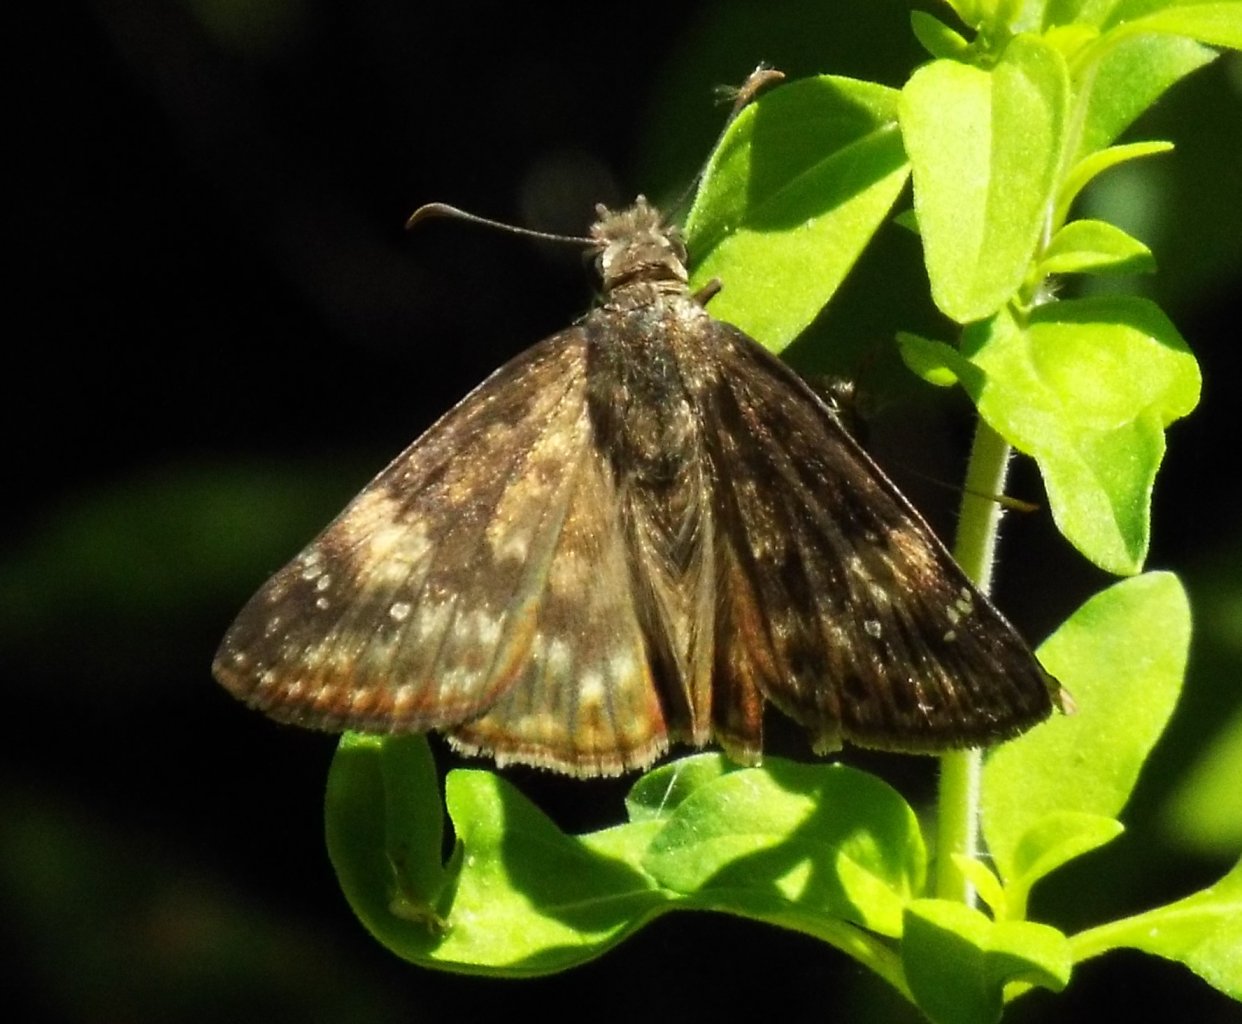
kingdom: Animalia
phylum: Arthropoda
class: Insecta
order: Lepidoptera
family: Hesperiidae
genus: Erynnis
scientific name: Erynnis zarucco
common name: Zarucco Duskywing
